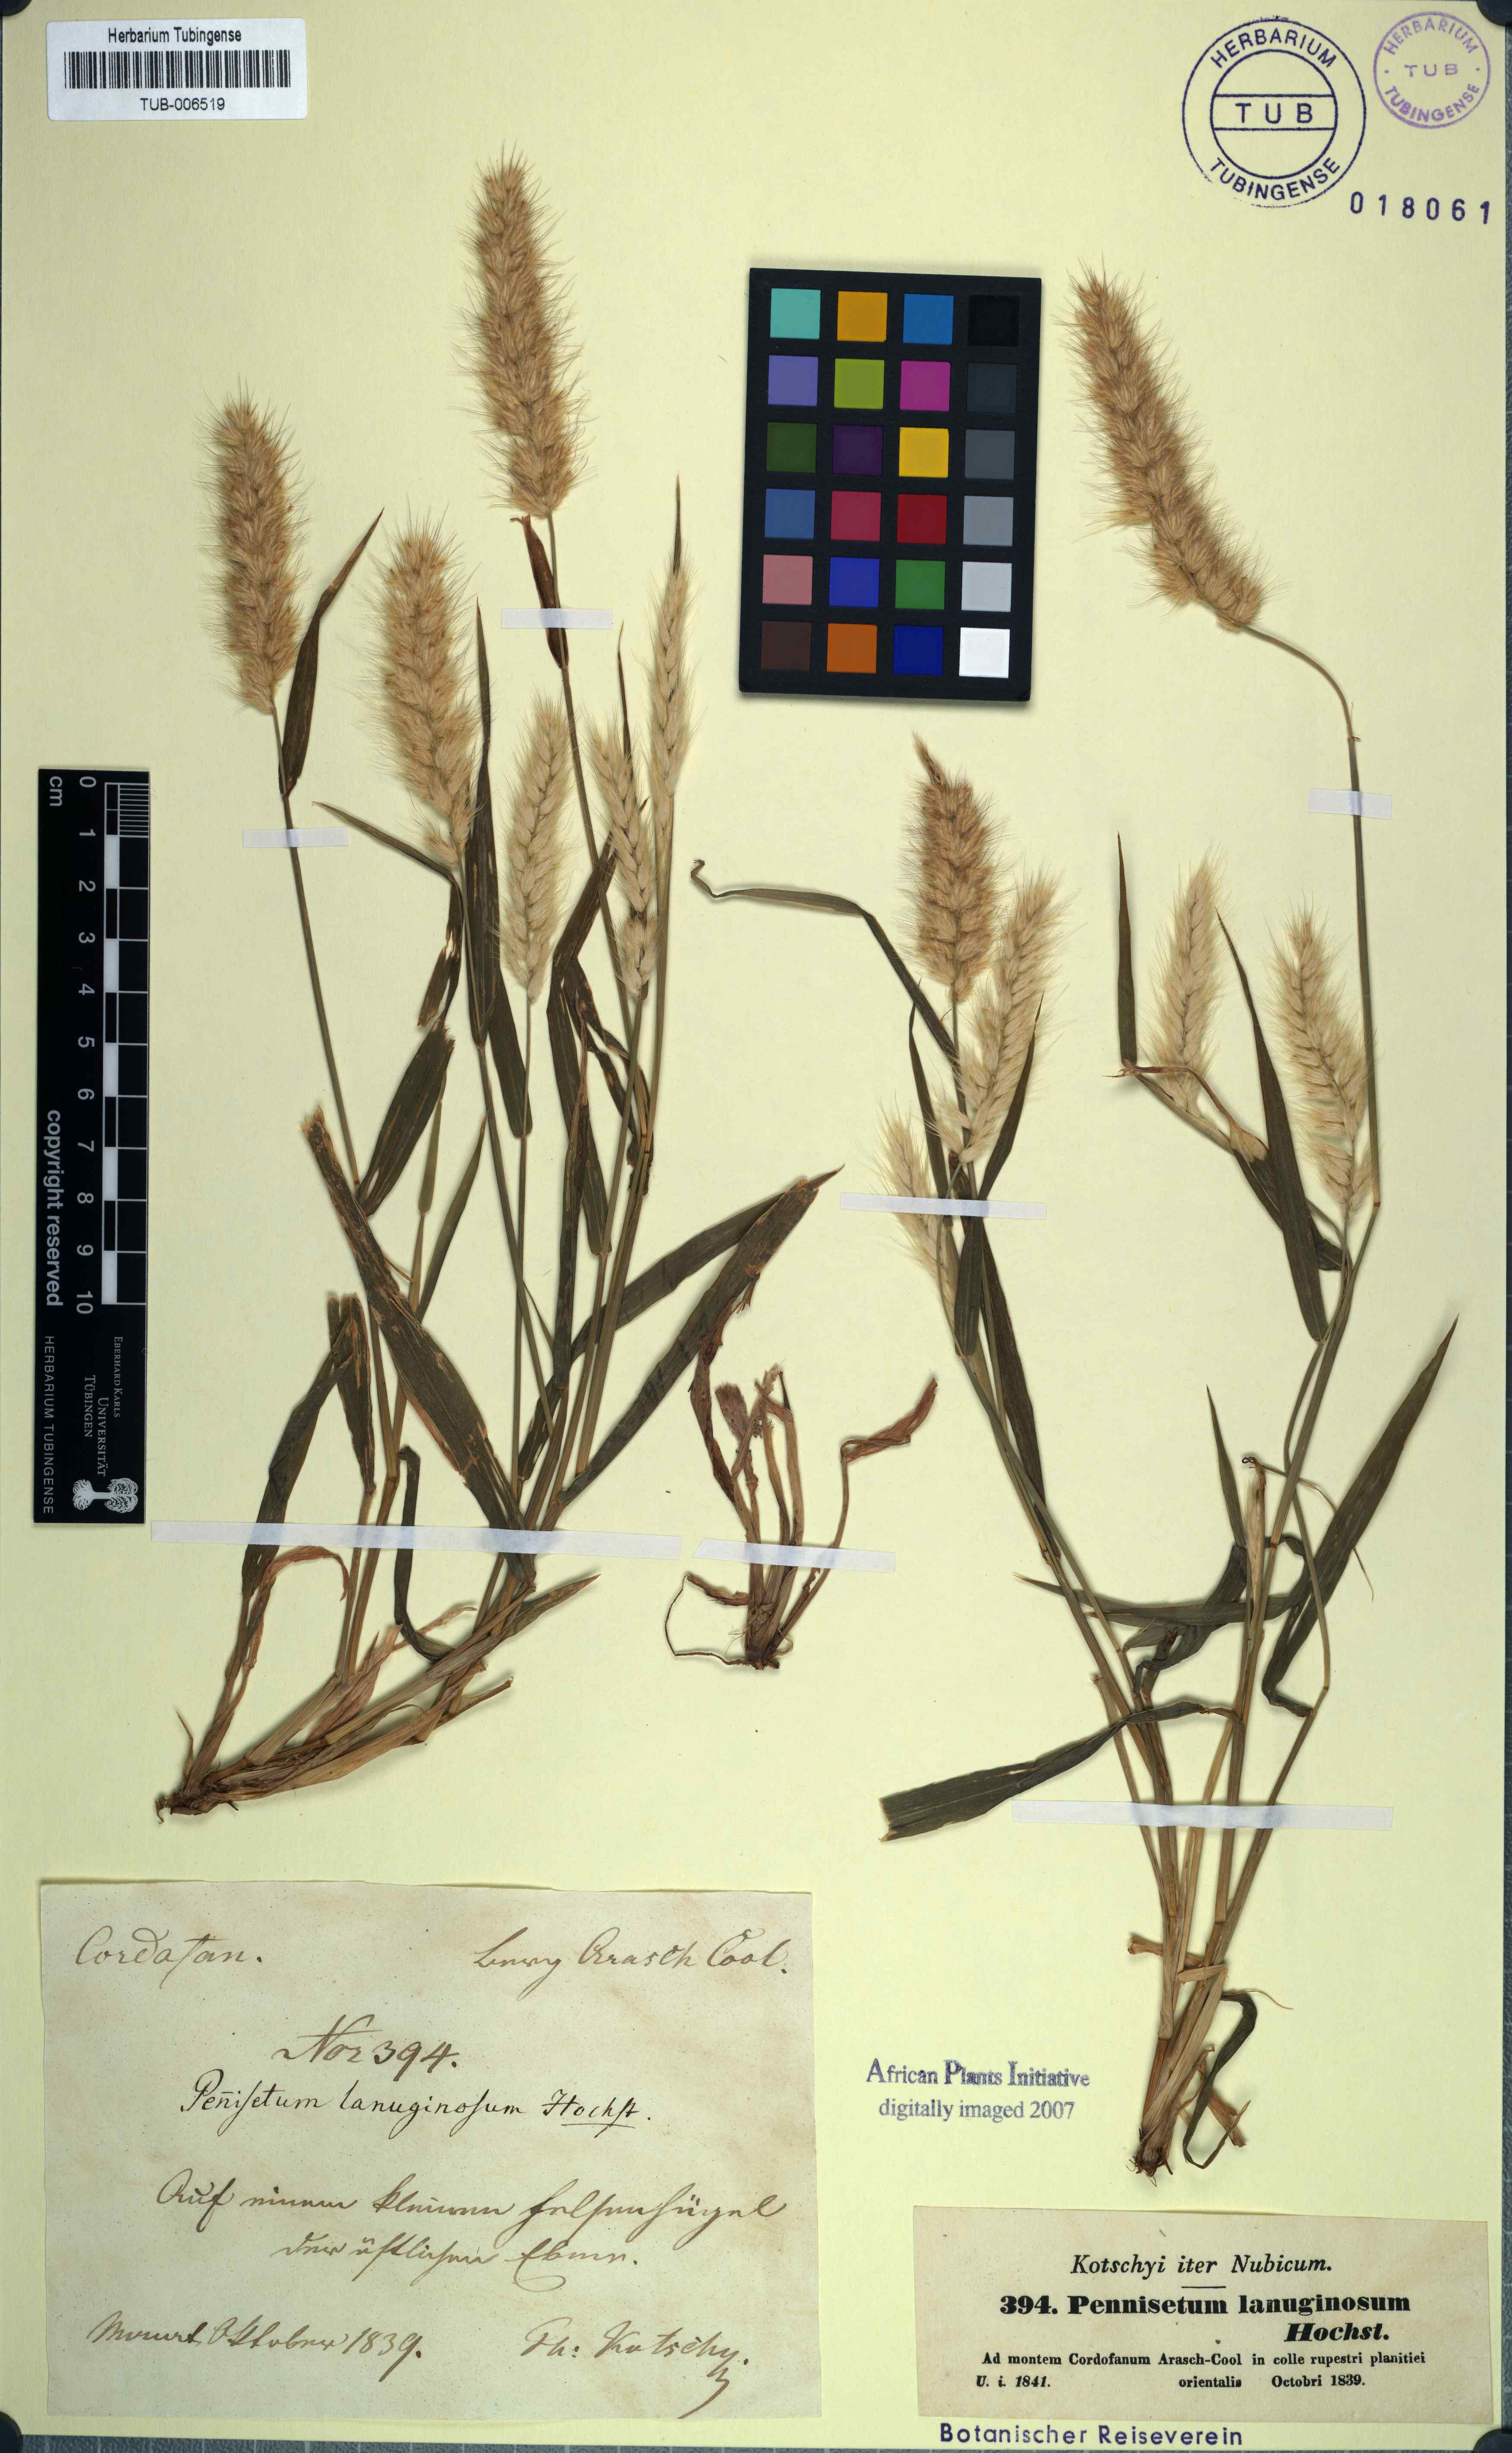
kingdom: Plantae
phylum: Tracheophyta
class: Liliopsida
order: Poales
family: Poaceae
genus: Cenchrus
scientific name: Cenchrus pedicellatus
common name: Hairy fountain grass
